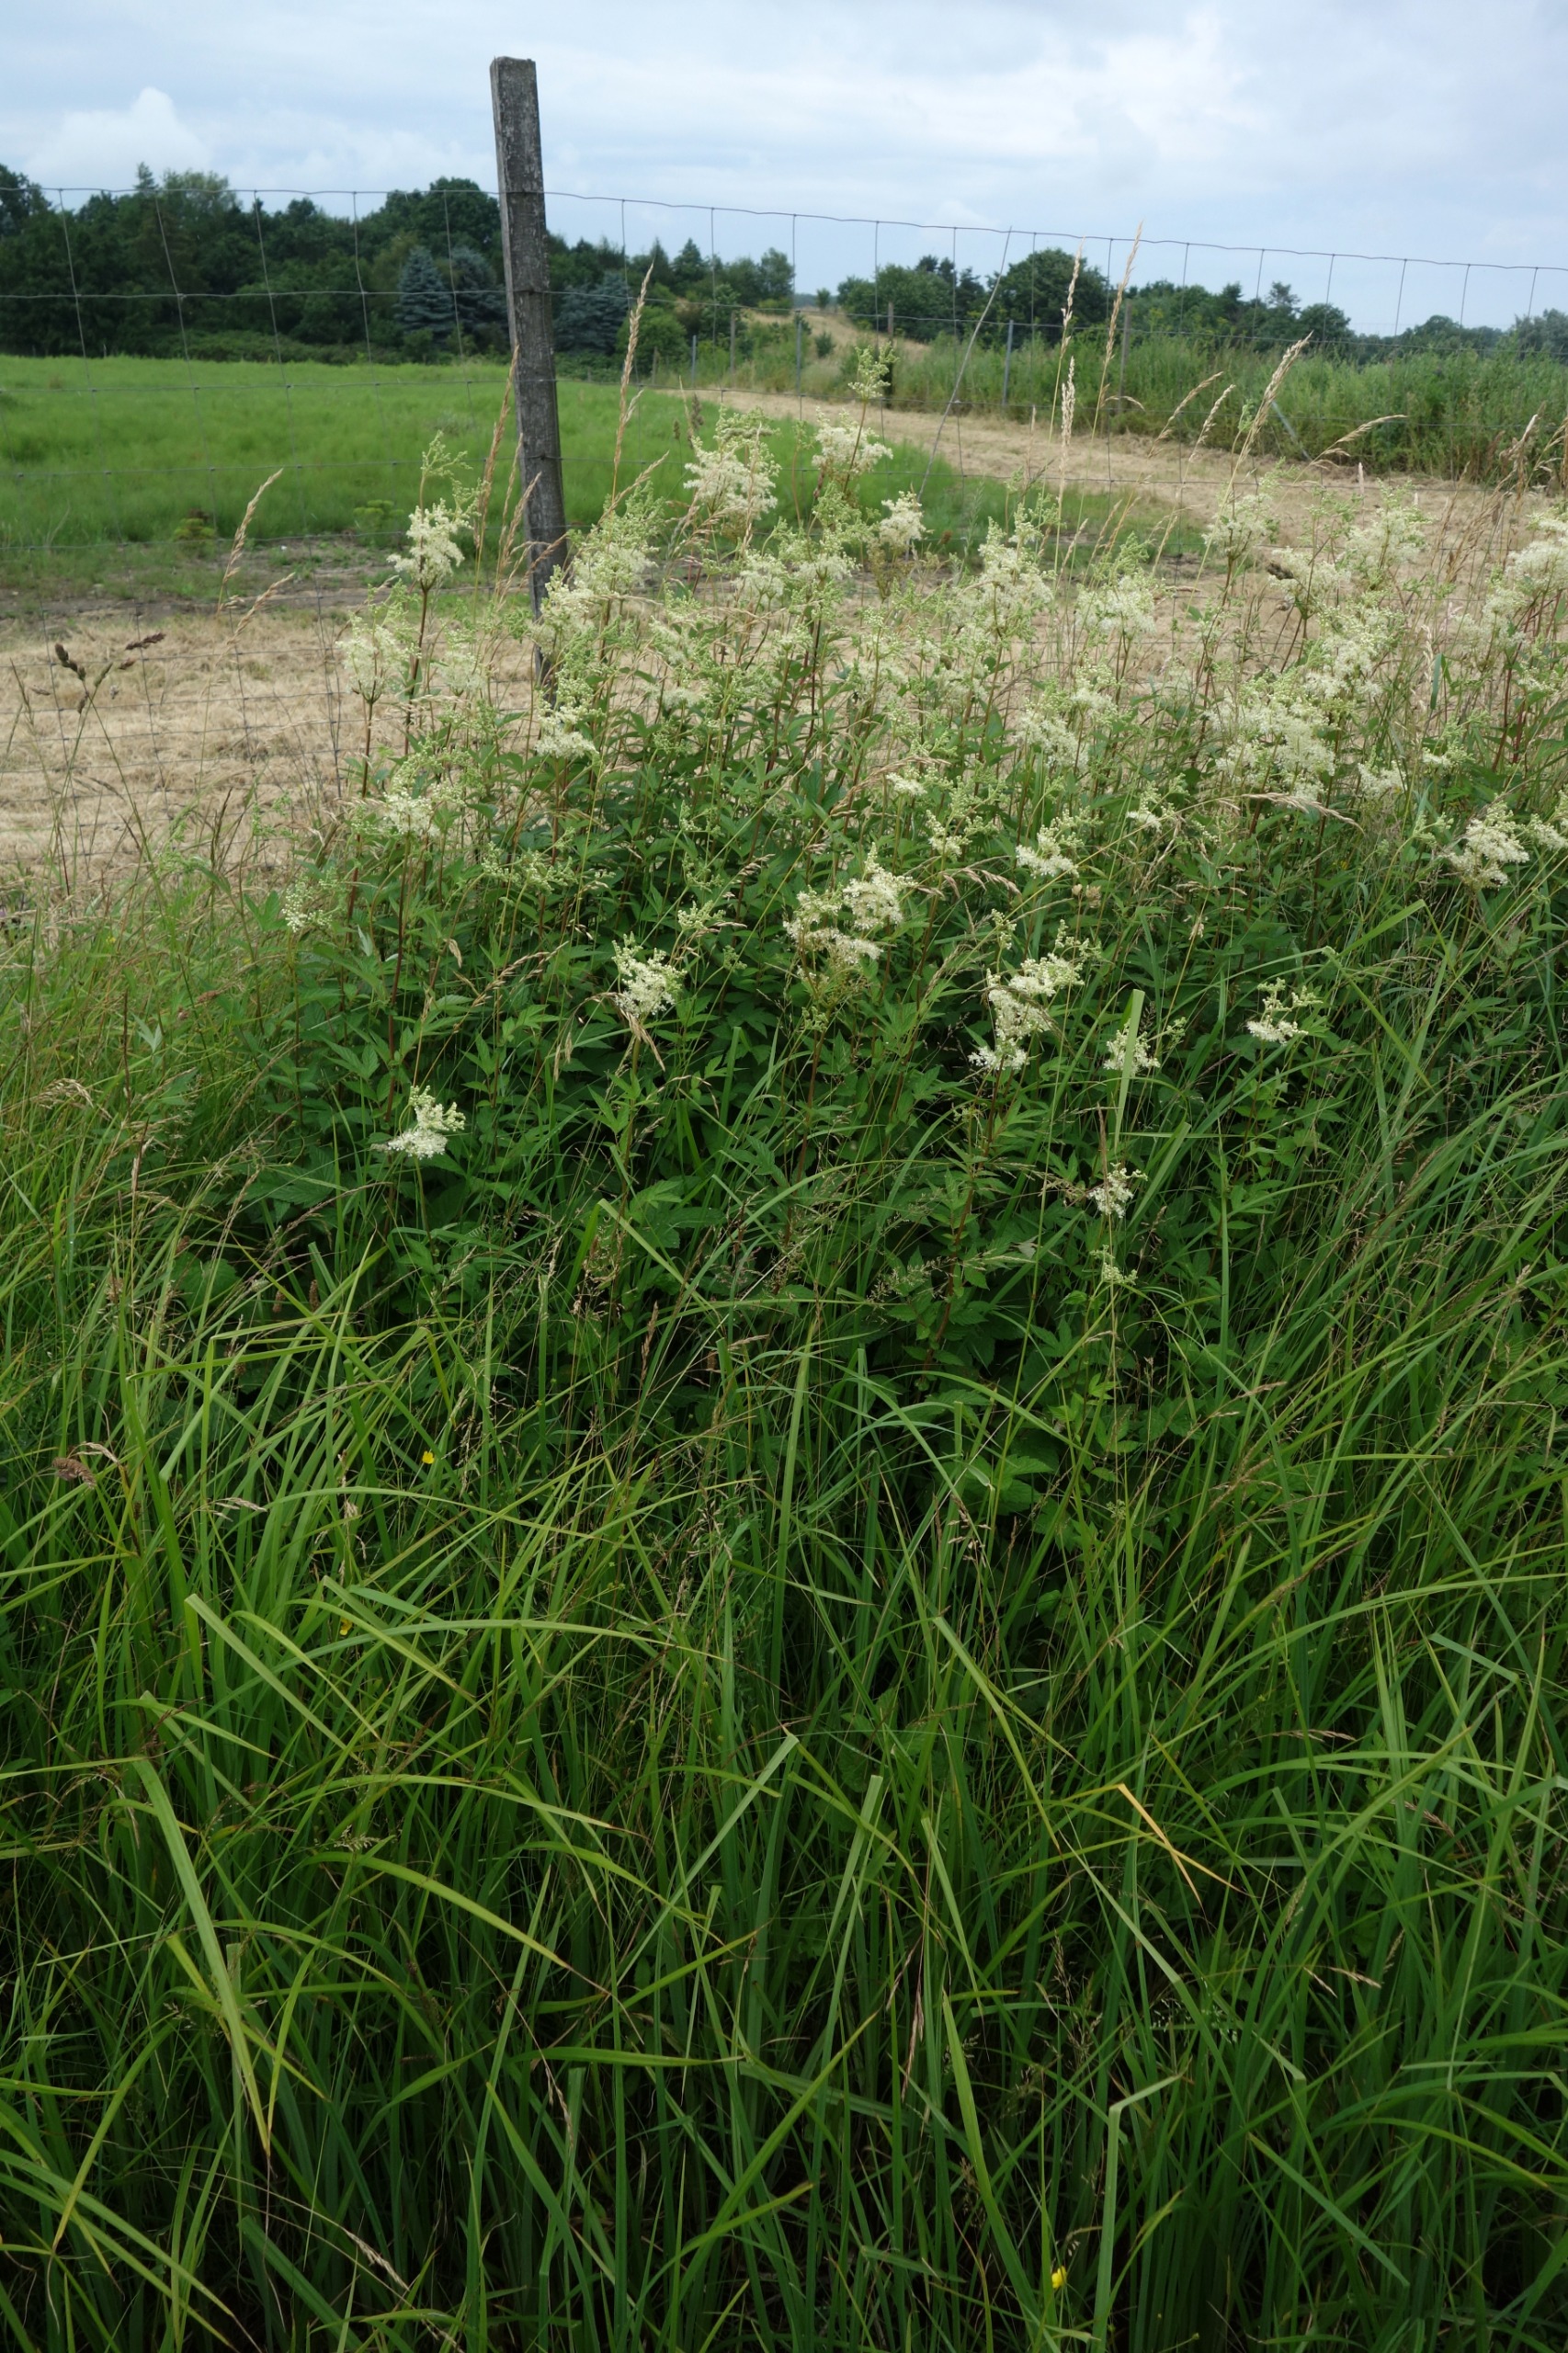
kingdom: Plantae
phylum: Tracheophyta
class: Magnoliopsida
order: Rosales
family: Rosaceae
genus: Filipendula
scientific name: Filipendula ulmaria
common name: Almindelig mjødurt
